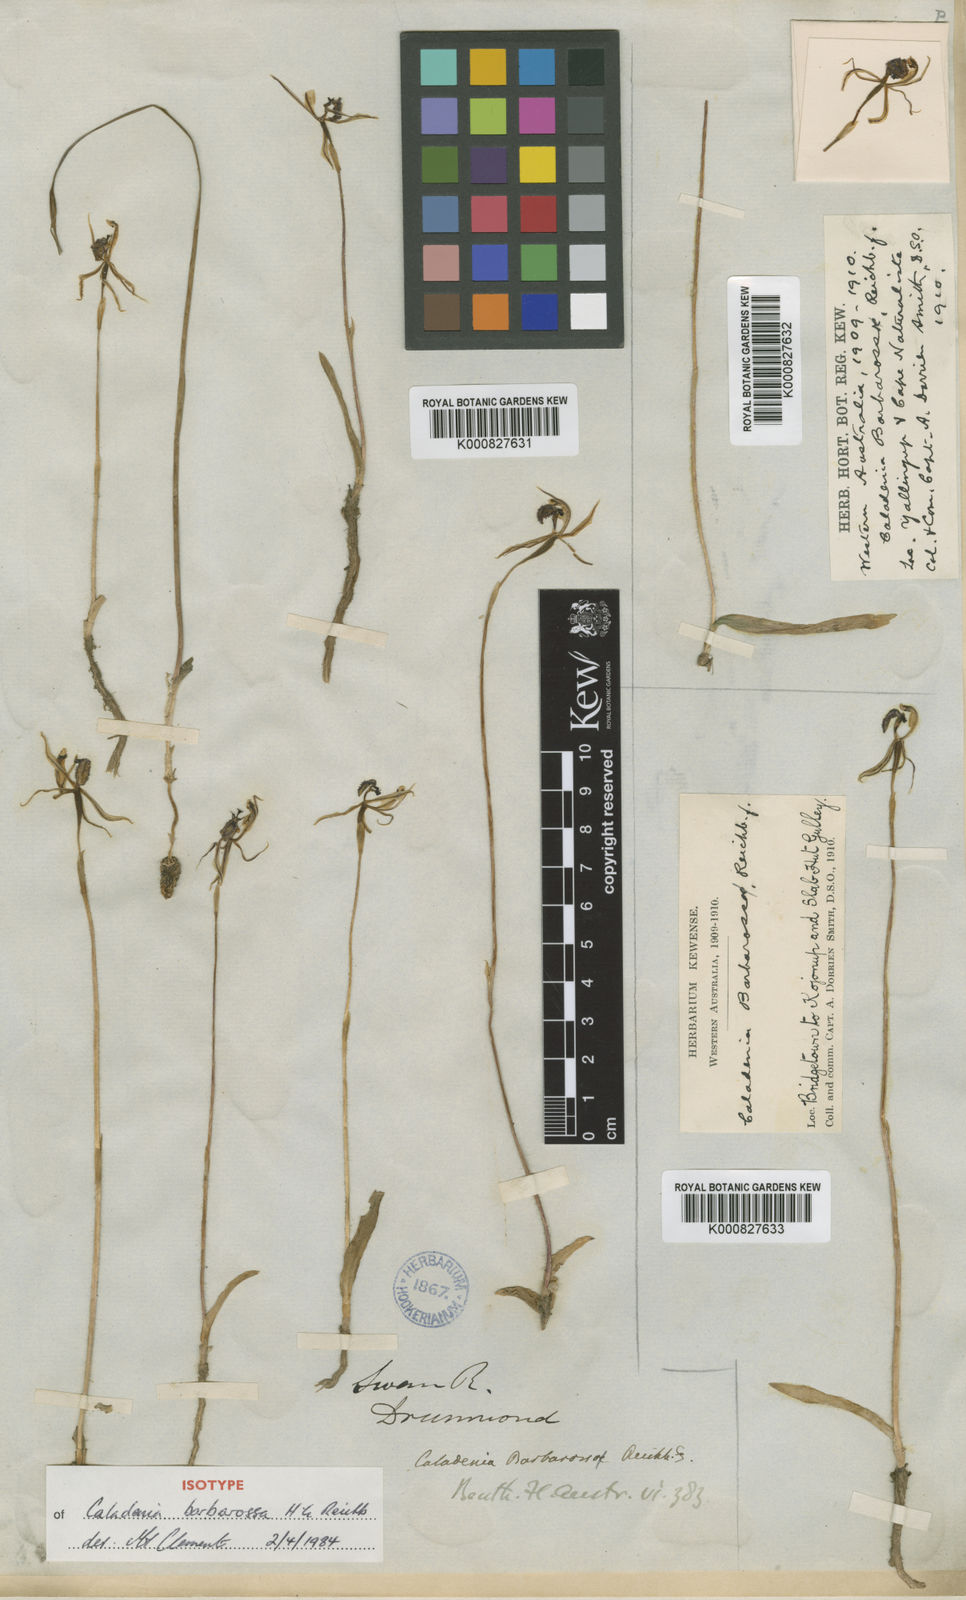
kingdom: Plantae
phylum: Tracheophyta
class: Liliopsida
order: Asparagales
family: Orchidaceae
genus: Caladenia
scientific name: Caladenia barbarossa
